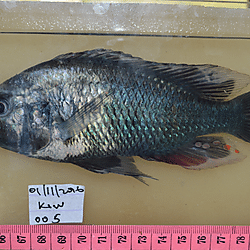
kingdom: Animalia
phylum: Chordata
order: Perciformes
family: Cichlidae
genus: Haplochromis
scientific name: Haplochromis acidens
